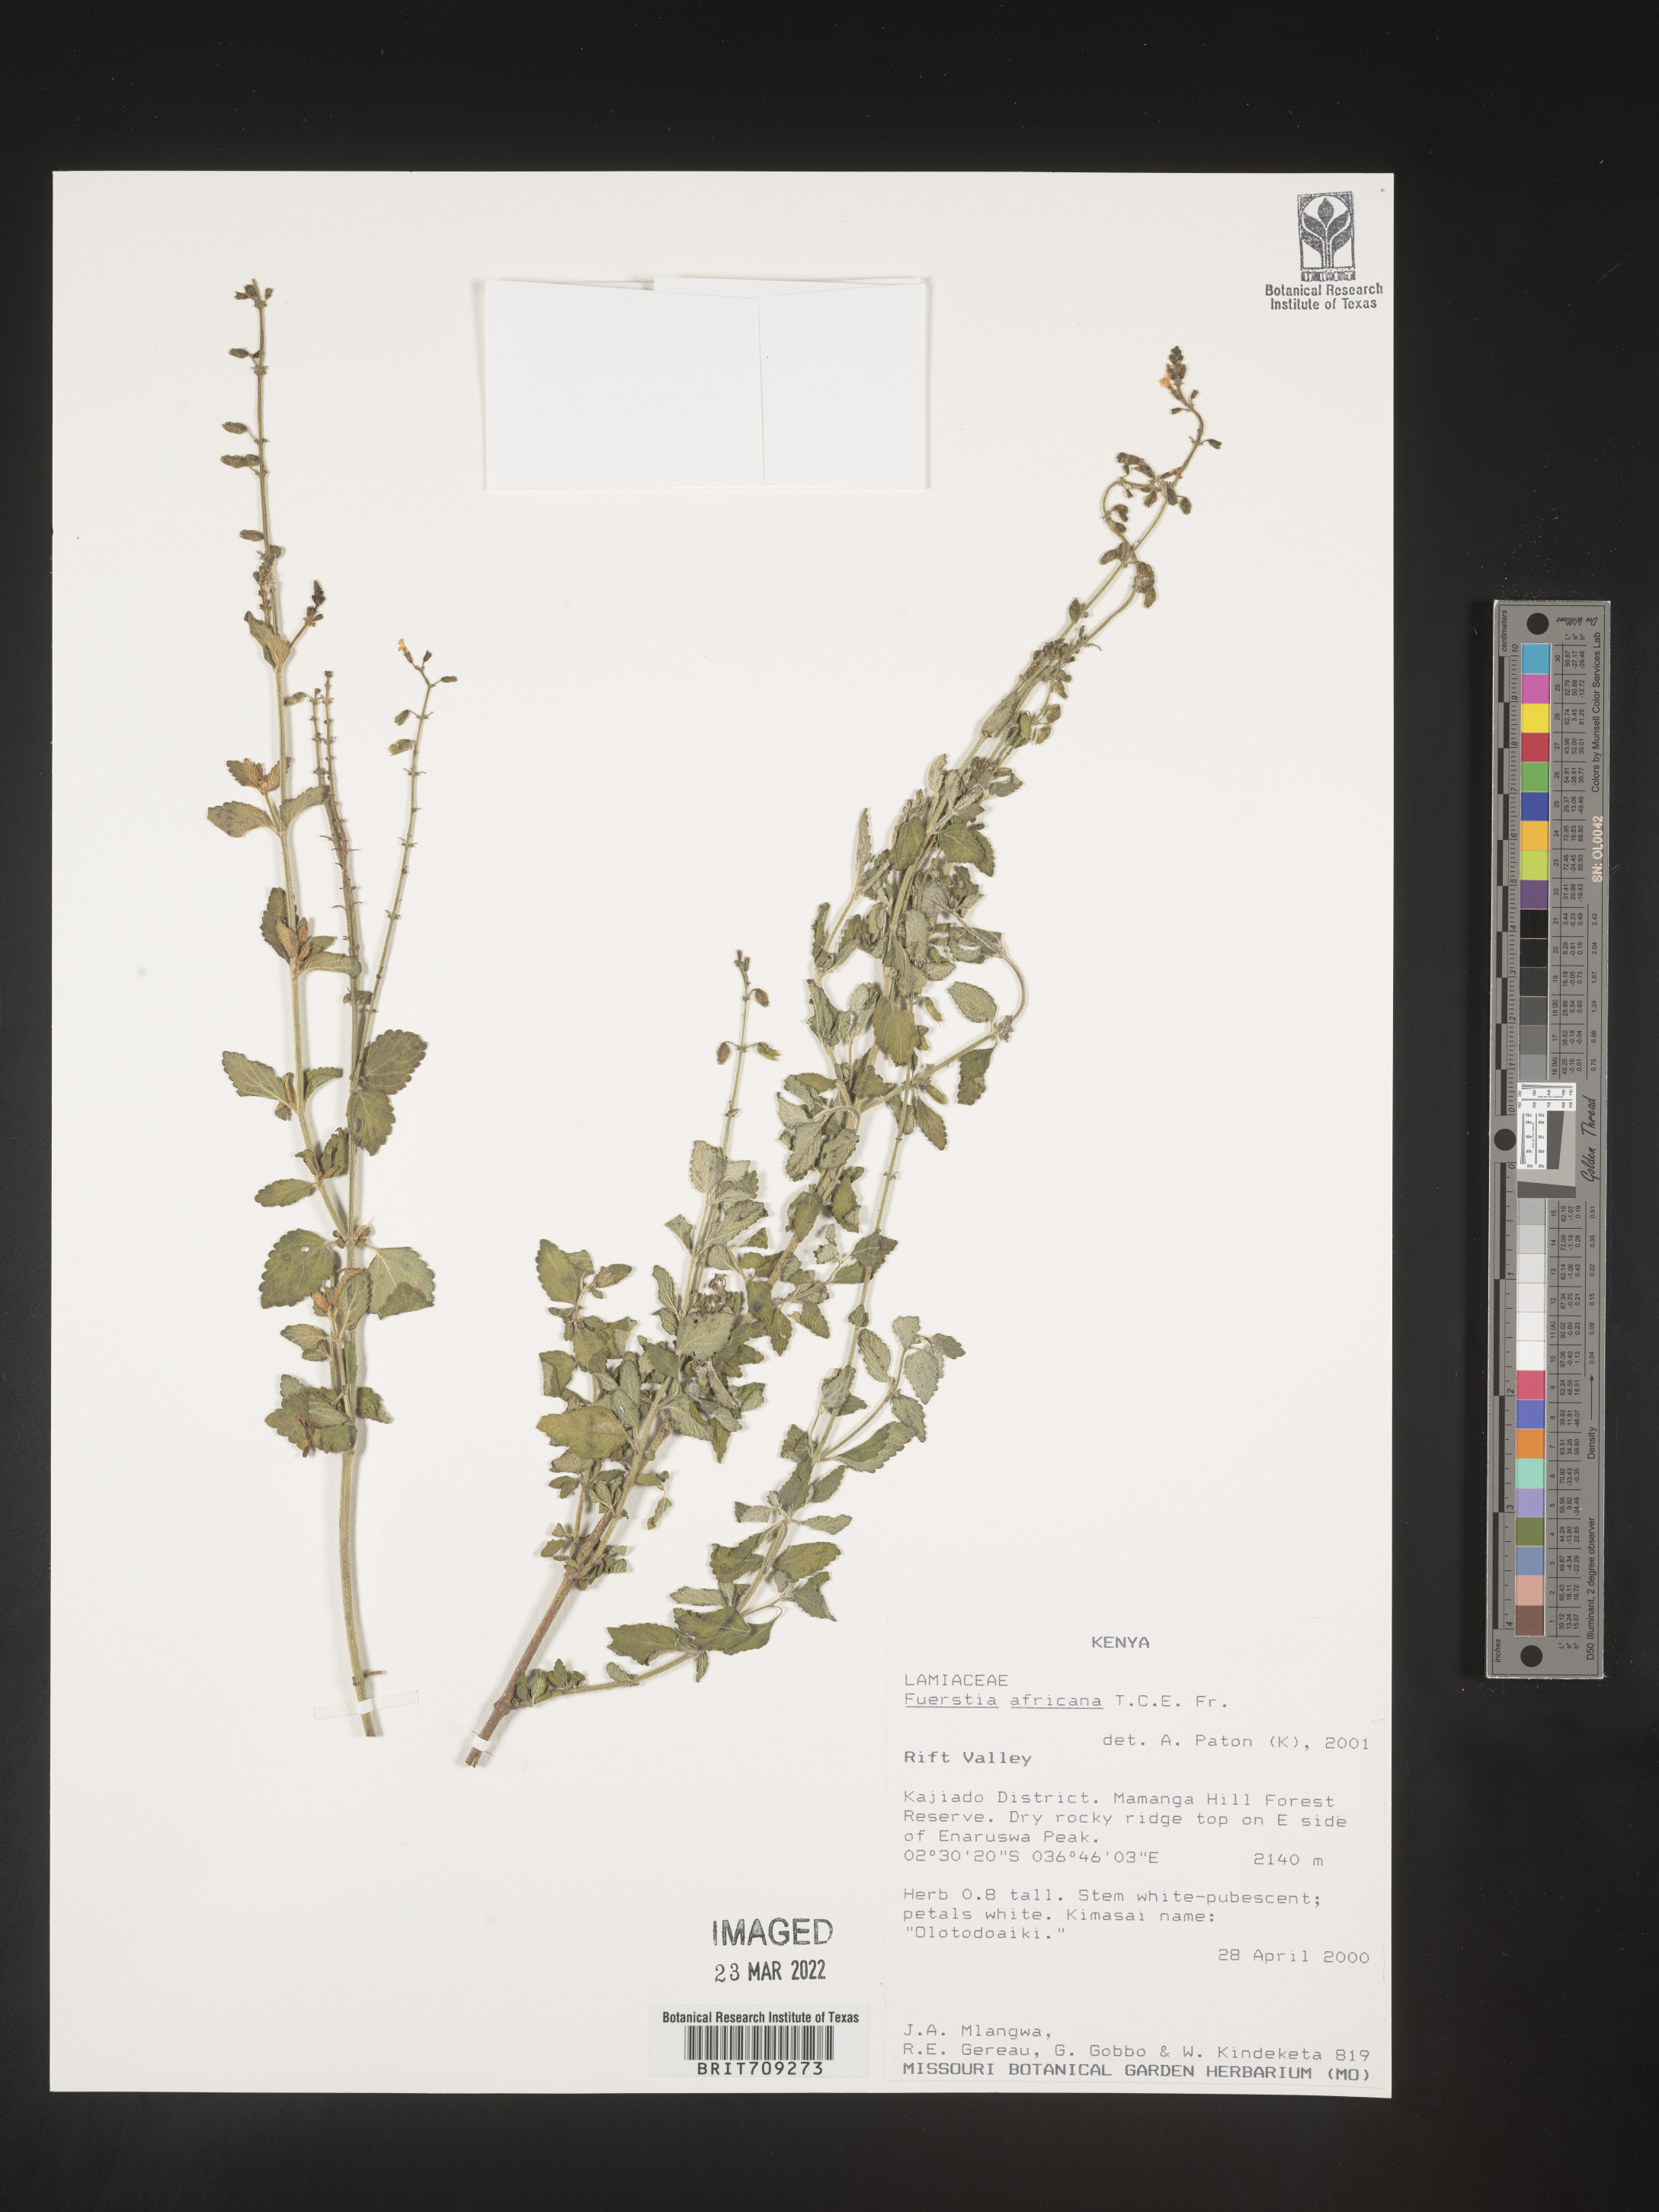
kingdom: Plantae
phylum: Tracheophyta
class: Magnoliopsida
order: Lamiales
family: Lamiaceae
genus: Fuerstia
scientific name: Fuerstia
